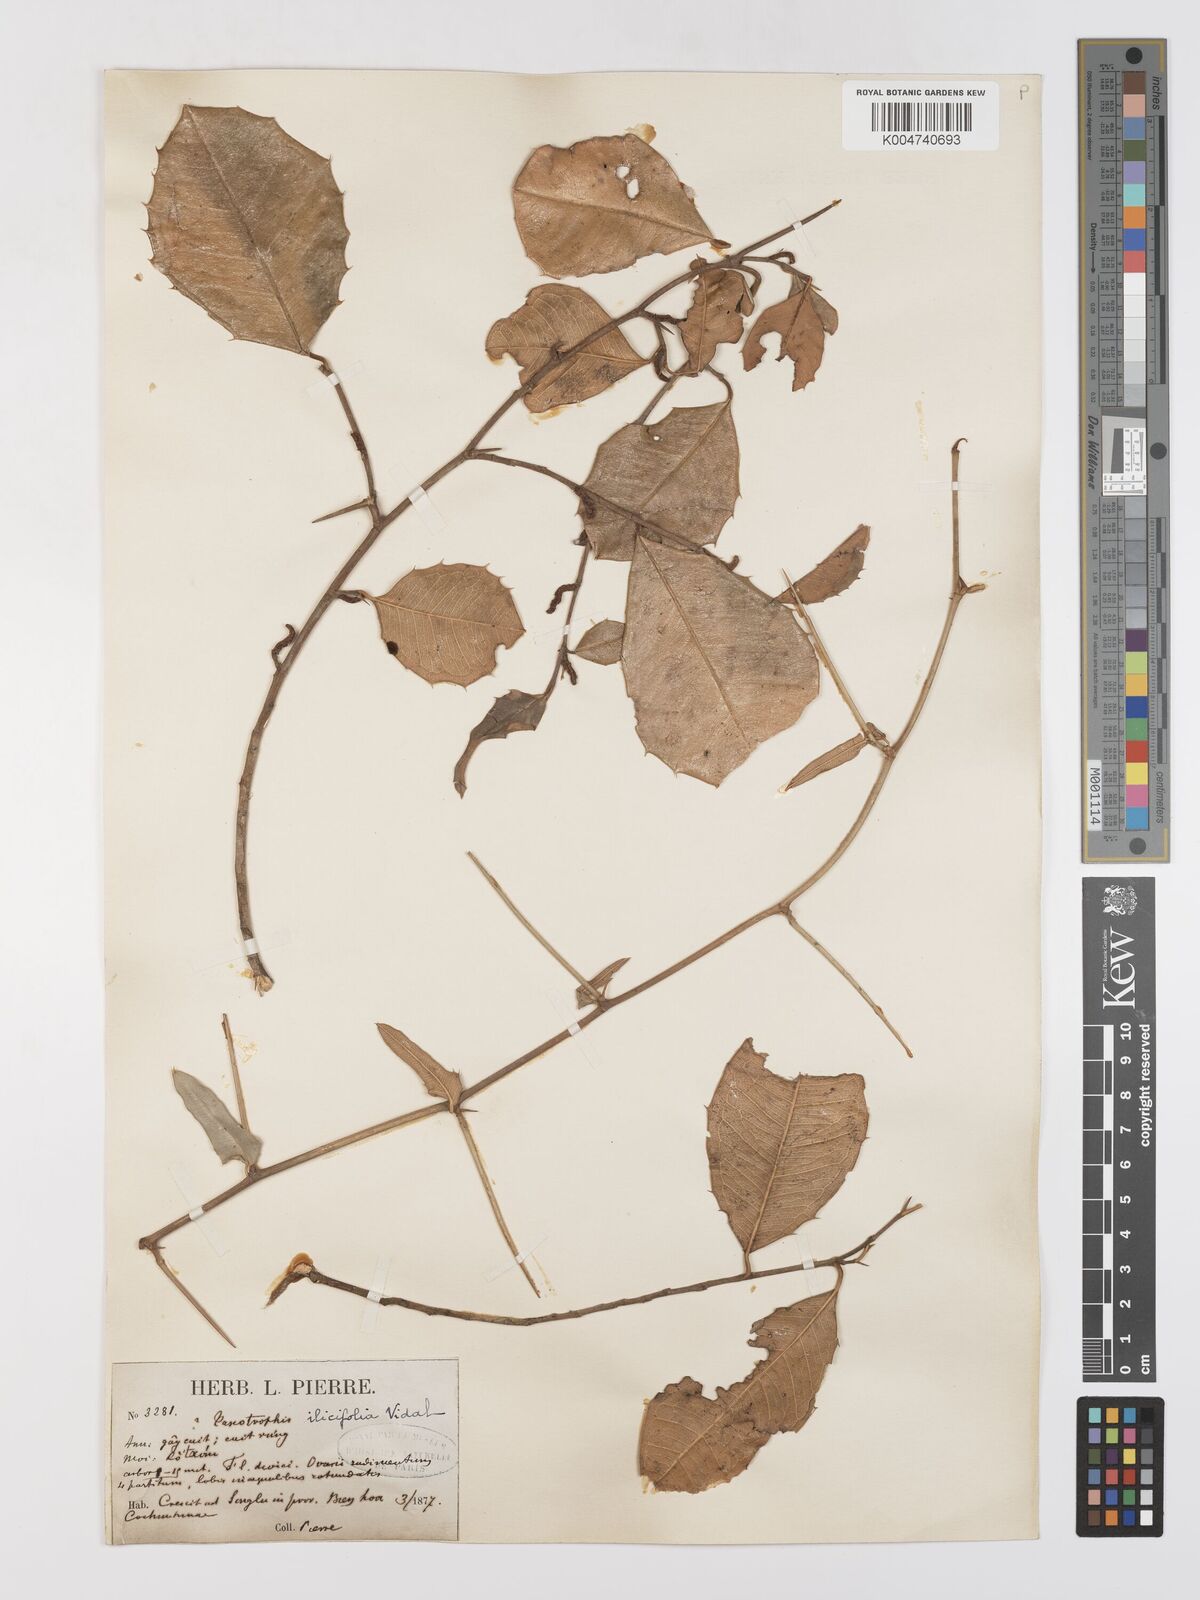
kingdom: Plantae
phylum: Tracheophyta
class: Magnoliopsida
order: Rosales
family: Moraceae
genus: Taxotrophis
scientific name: Taxotrophis ilicifolia
